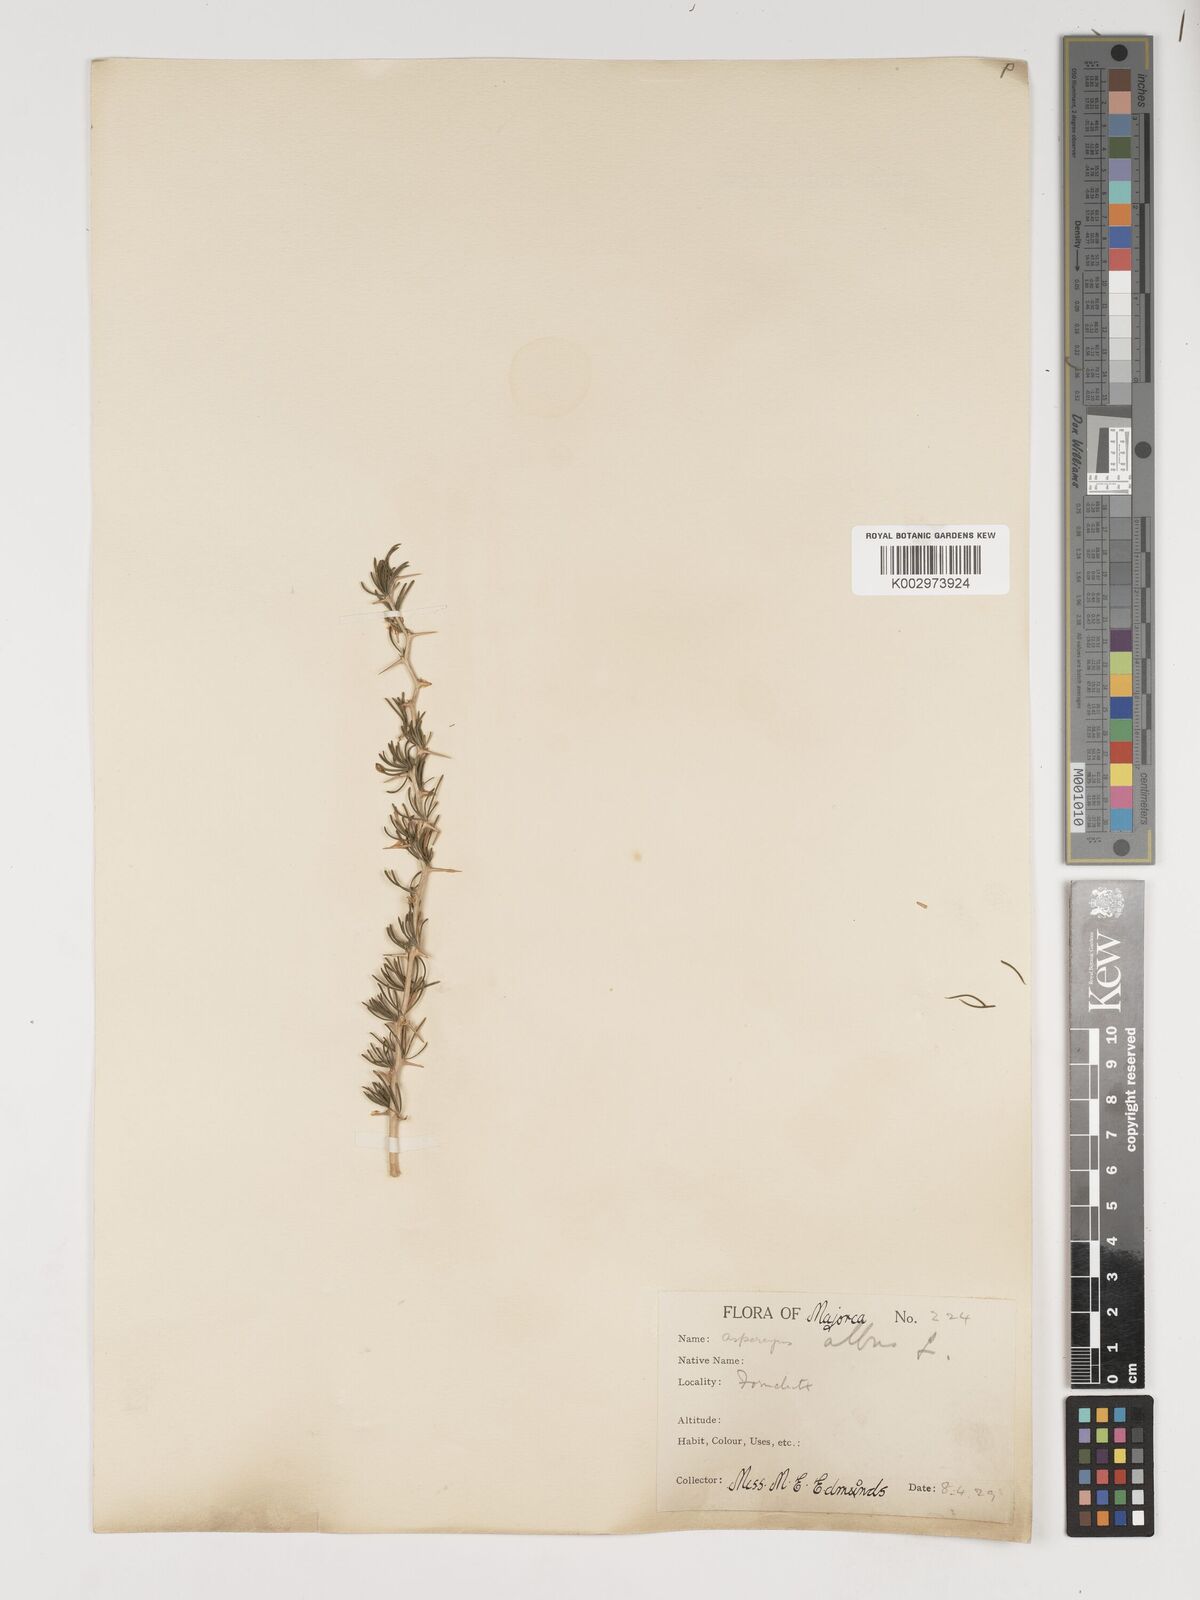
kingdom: Plantae
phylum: Tracheophyta
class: Liliopsida
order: Asparagales
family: Asparagaceae
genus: Asparagus
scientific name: Asparagus albus
